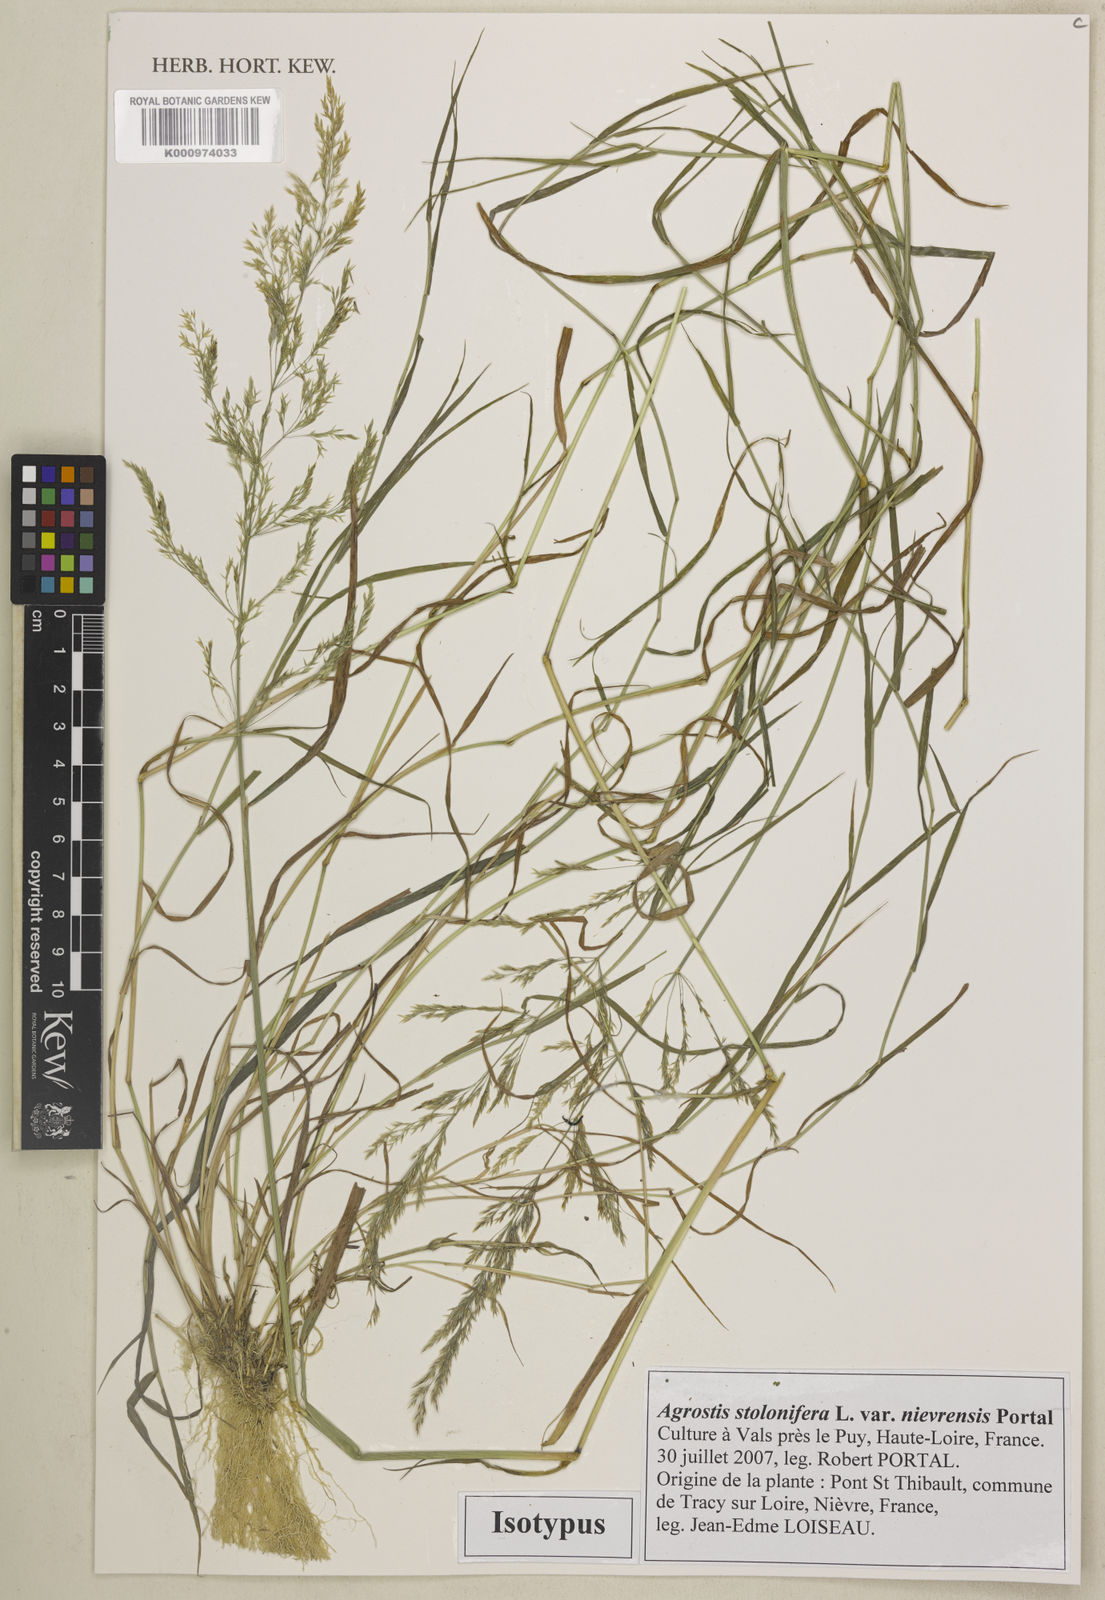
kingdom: Plantae
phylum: Tracheophyta
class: Liliopsida
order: Poales
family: Poaceae
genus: Agrostis
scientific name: Agrostis stolonifera
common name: Creeping bentgrass
